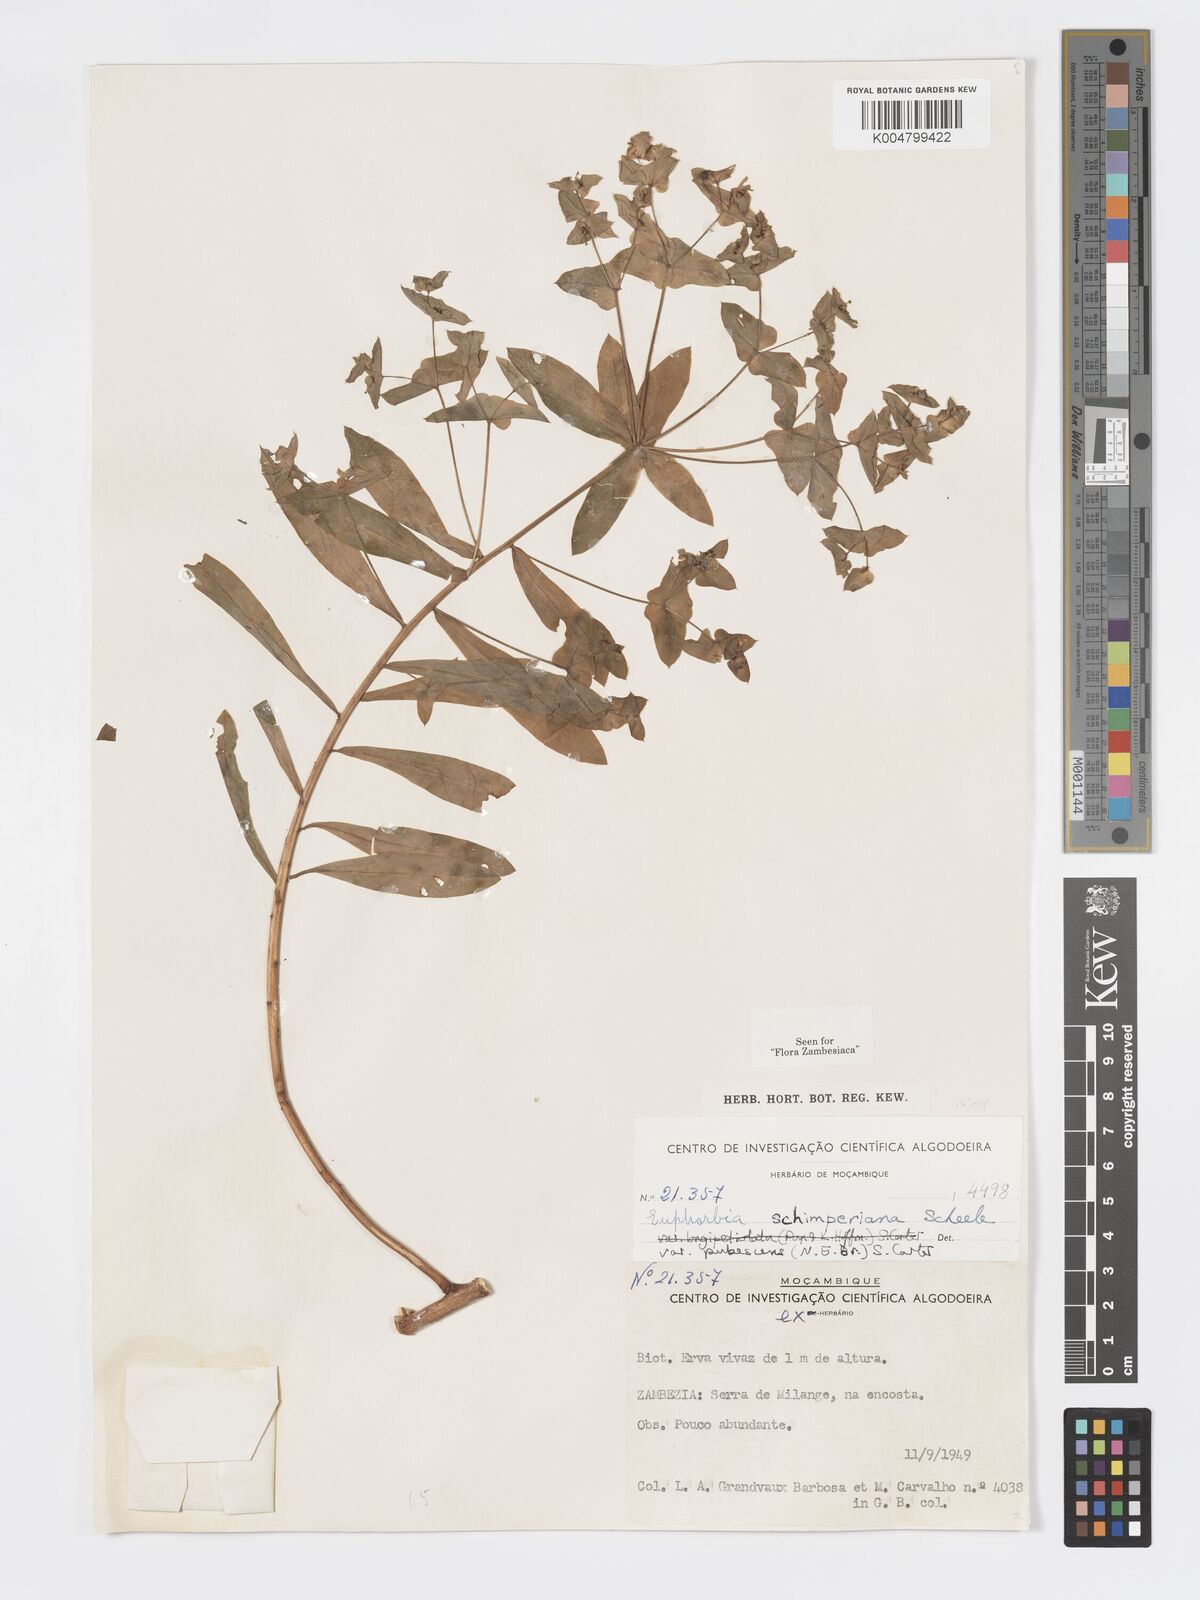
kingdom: Plantae
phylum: Tracheophyta
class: Magnoliopsida
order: Malpighiales
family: Euphorbiaceae
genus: Euphorbia
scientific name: Euphorbia schimperiana
